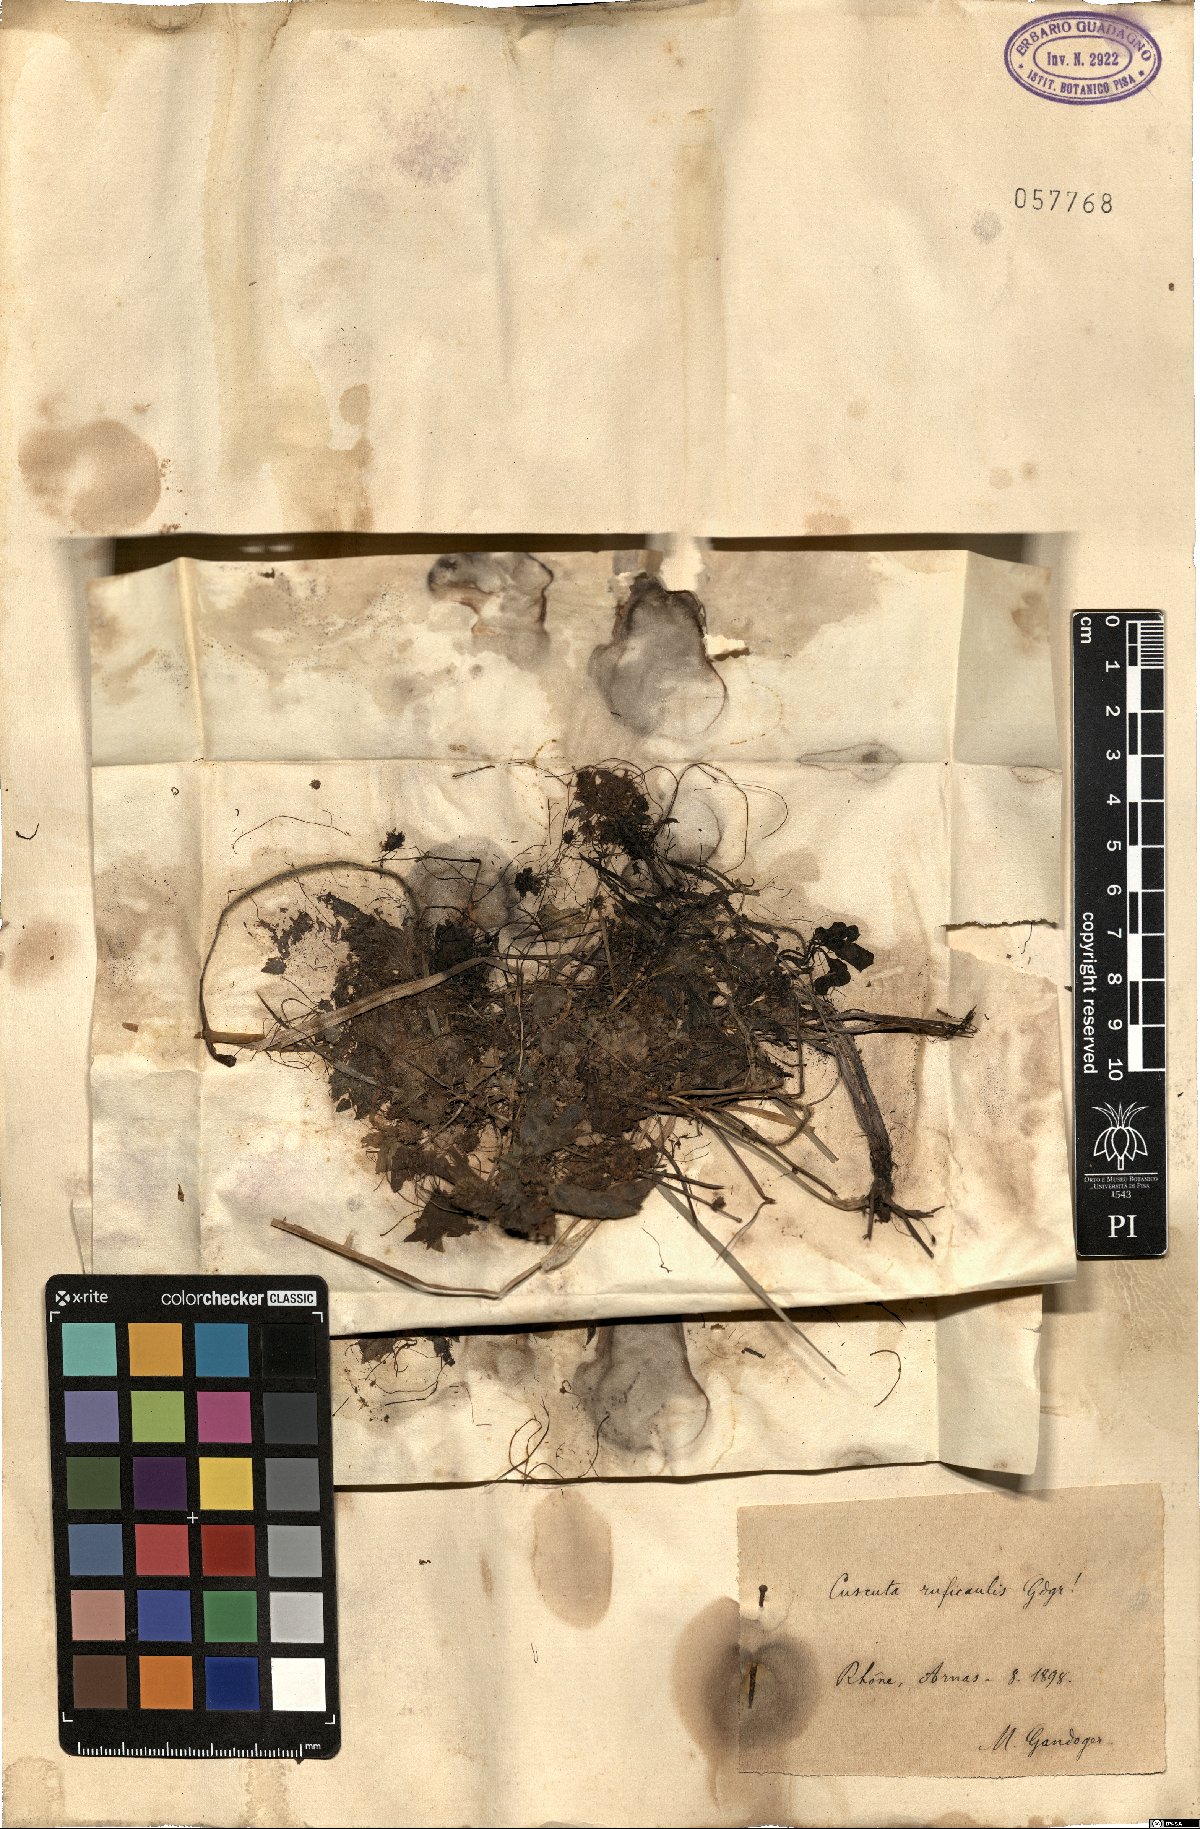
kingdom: Plantae
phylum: Tracheophyta
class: Magnoliopsida
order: Solanales
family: Convolvulaceae
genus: Cuscuta
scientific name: Cuscuta epithymum
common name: Clover dodder
